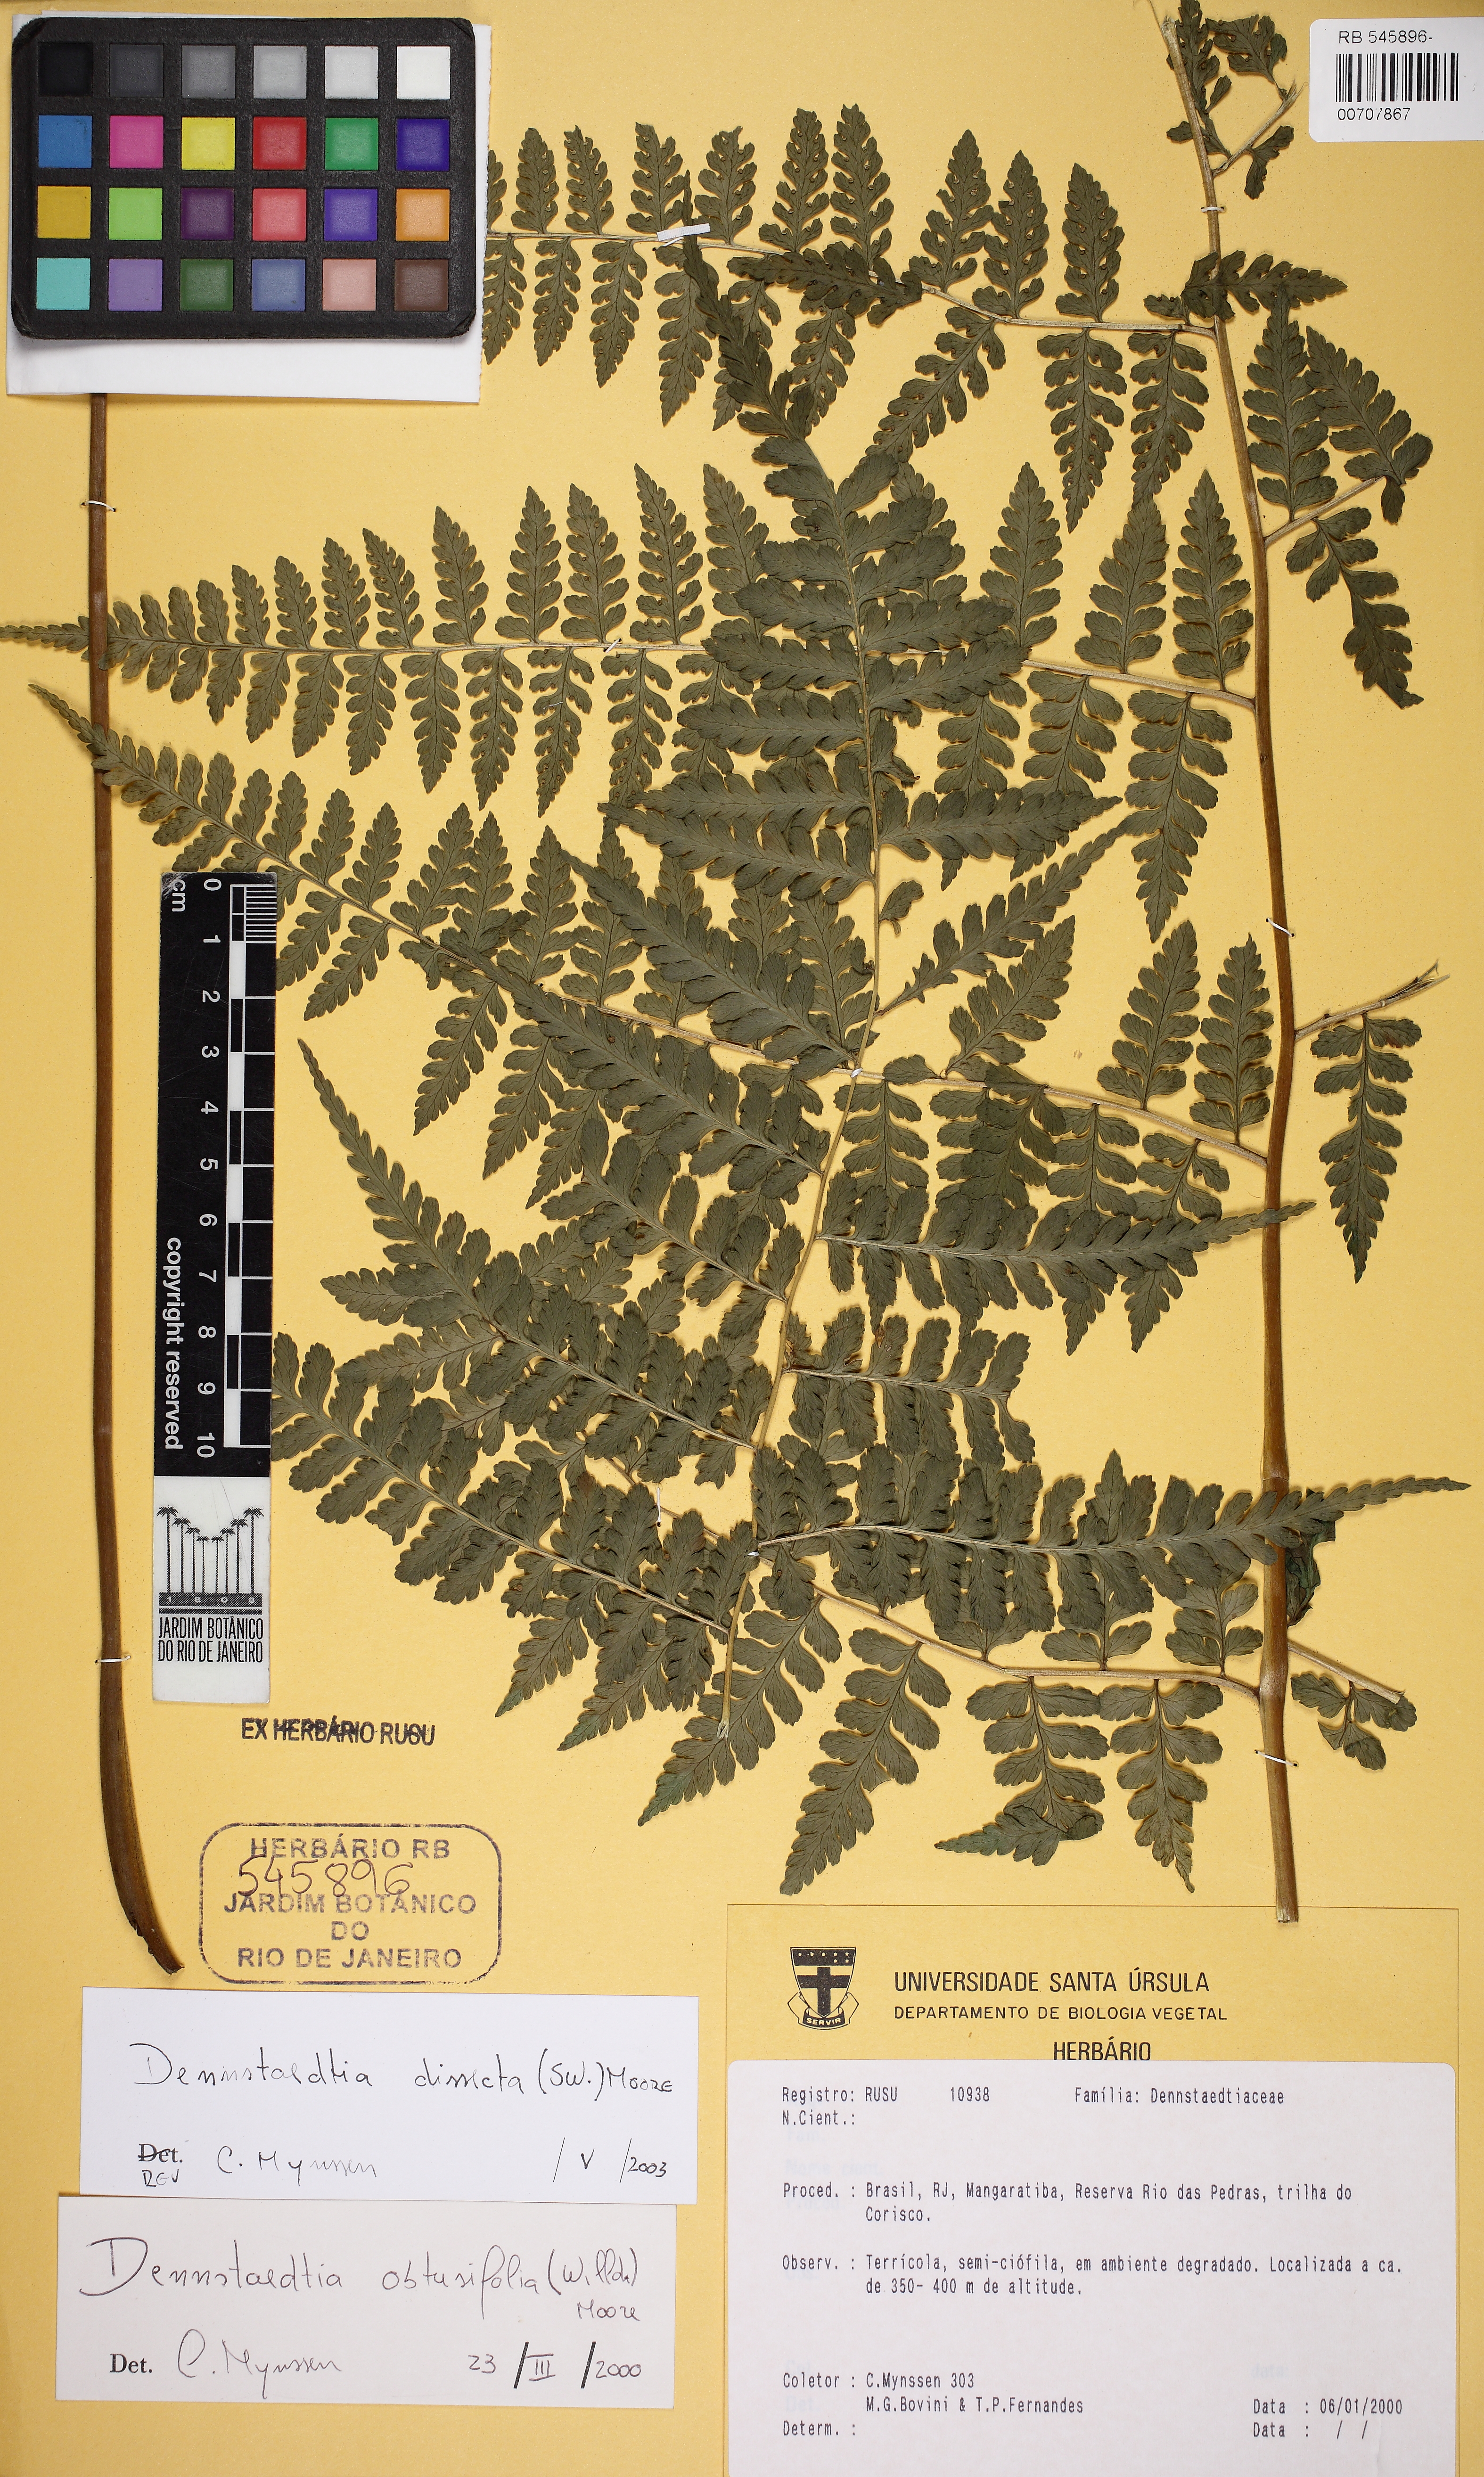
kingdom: Plantae
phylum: Tracheophyta
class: Polypodiopsida
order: Polypodiales
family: Dennstaedtiaceae
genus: Mucura
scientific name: Mucura globulifera
